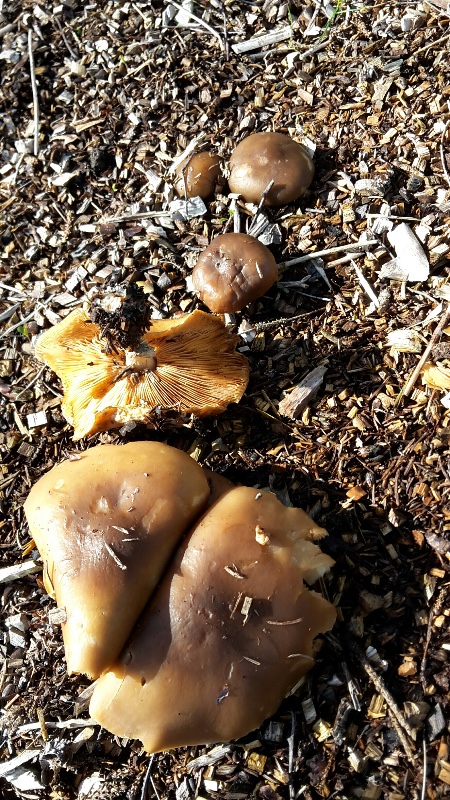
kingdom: Fungi
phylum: Basidiomycota
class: Agaricomycetes
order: Agaricales
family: Tricholomataceae
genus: Melanoleuca
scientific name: Melanoleuca cognata
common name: gyldengrå munkehat
